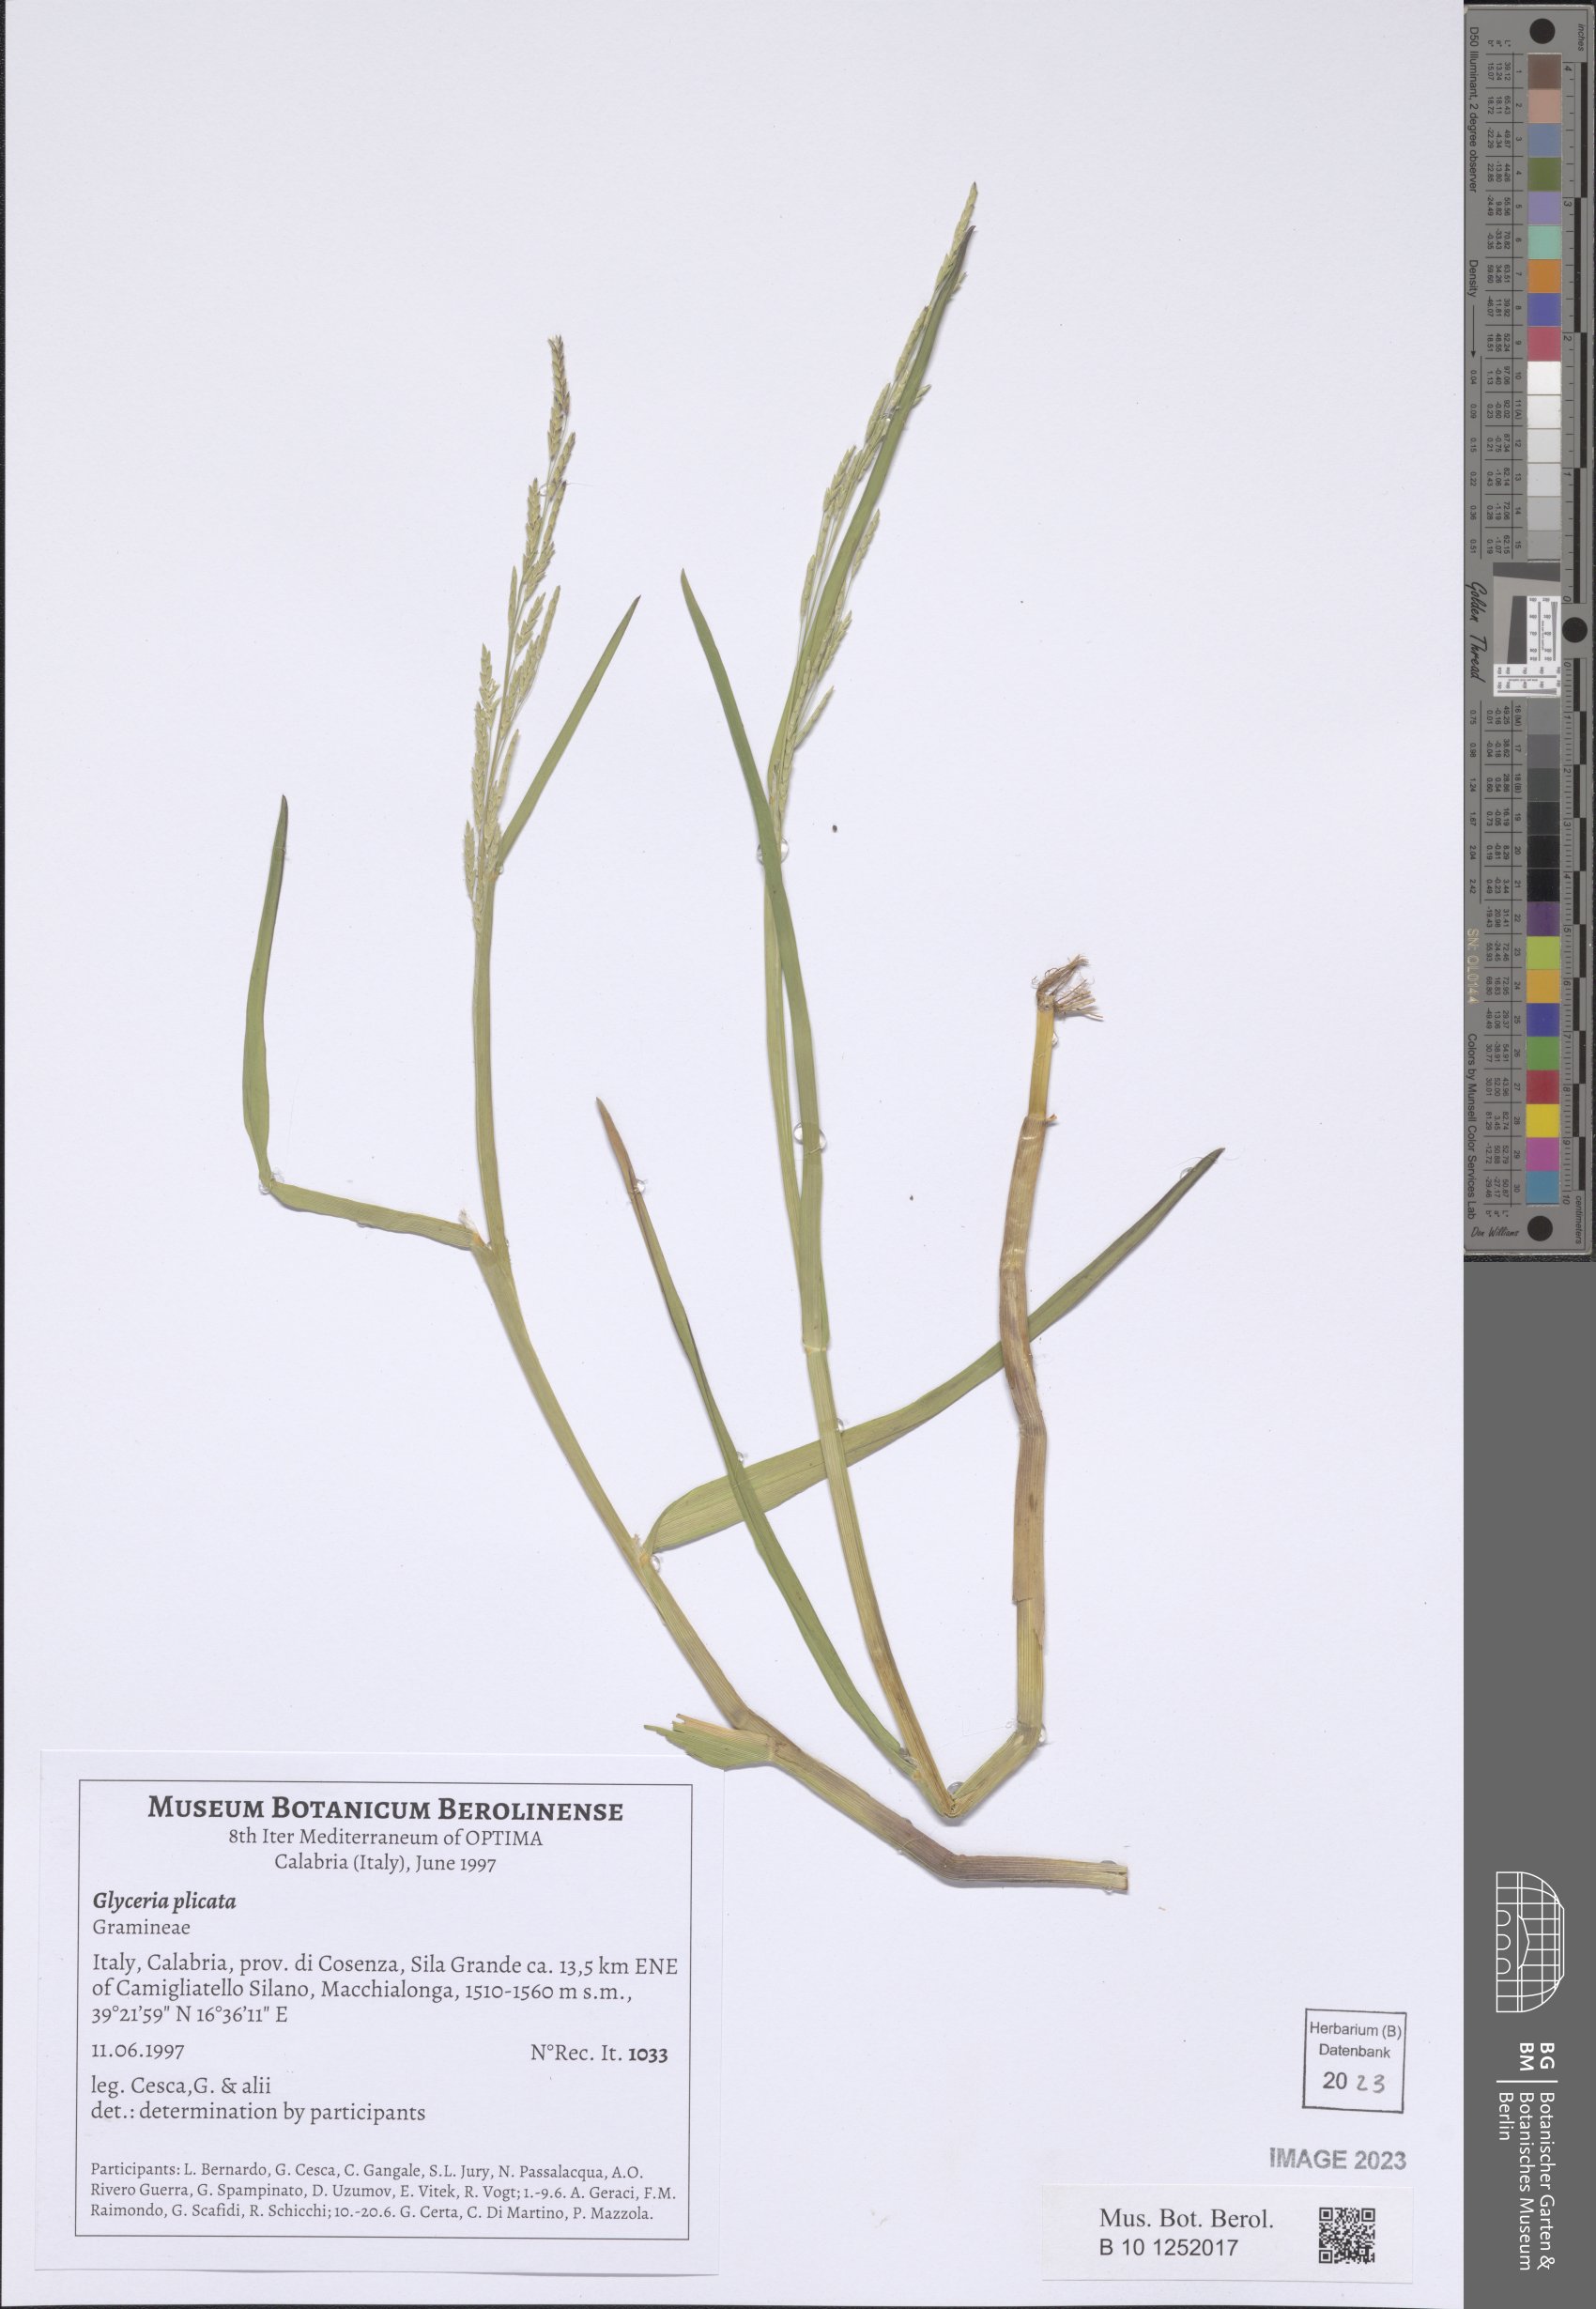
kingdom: Plantae
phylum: Tracheophyta
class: Liliopsida
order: Poales
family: Poaceae
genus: Glyceria
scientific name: Glyceria notata
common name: Plicate sweet-grass
